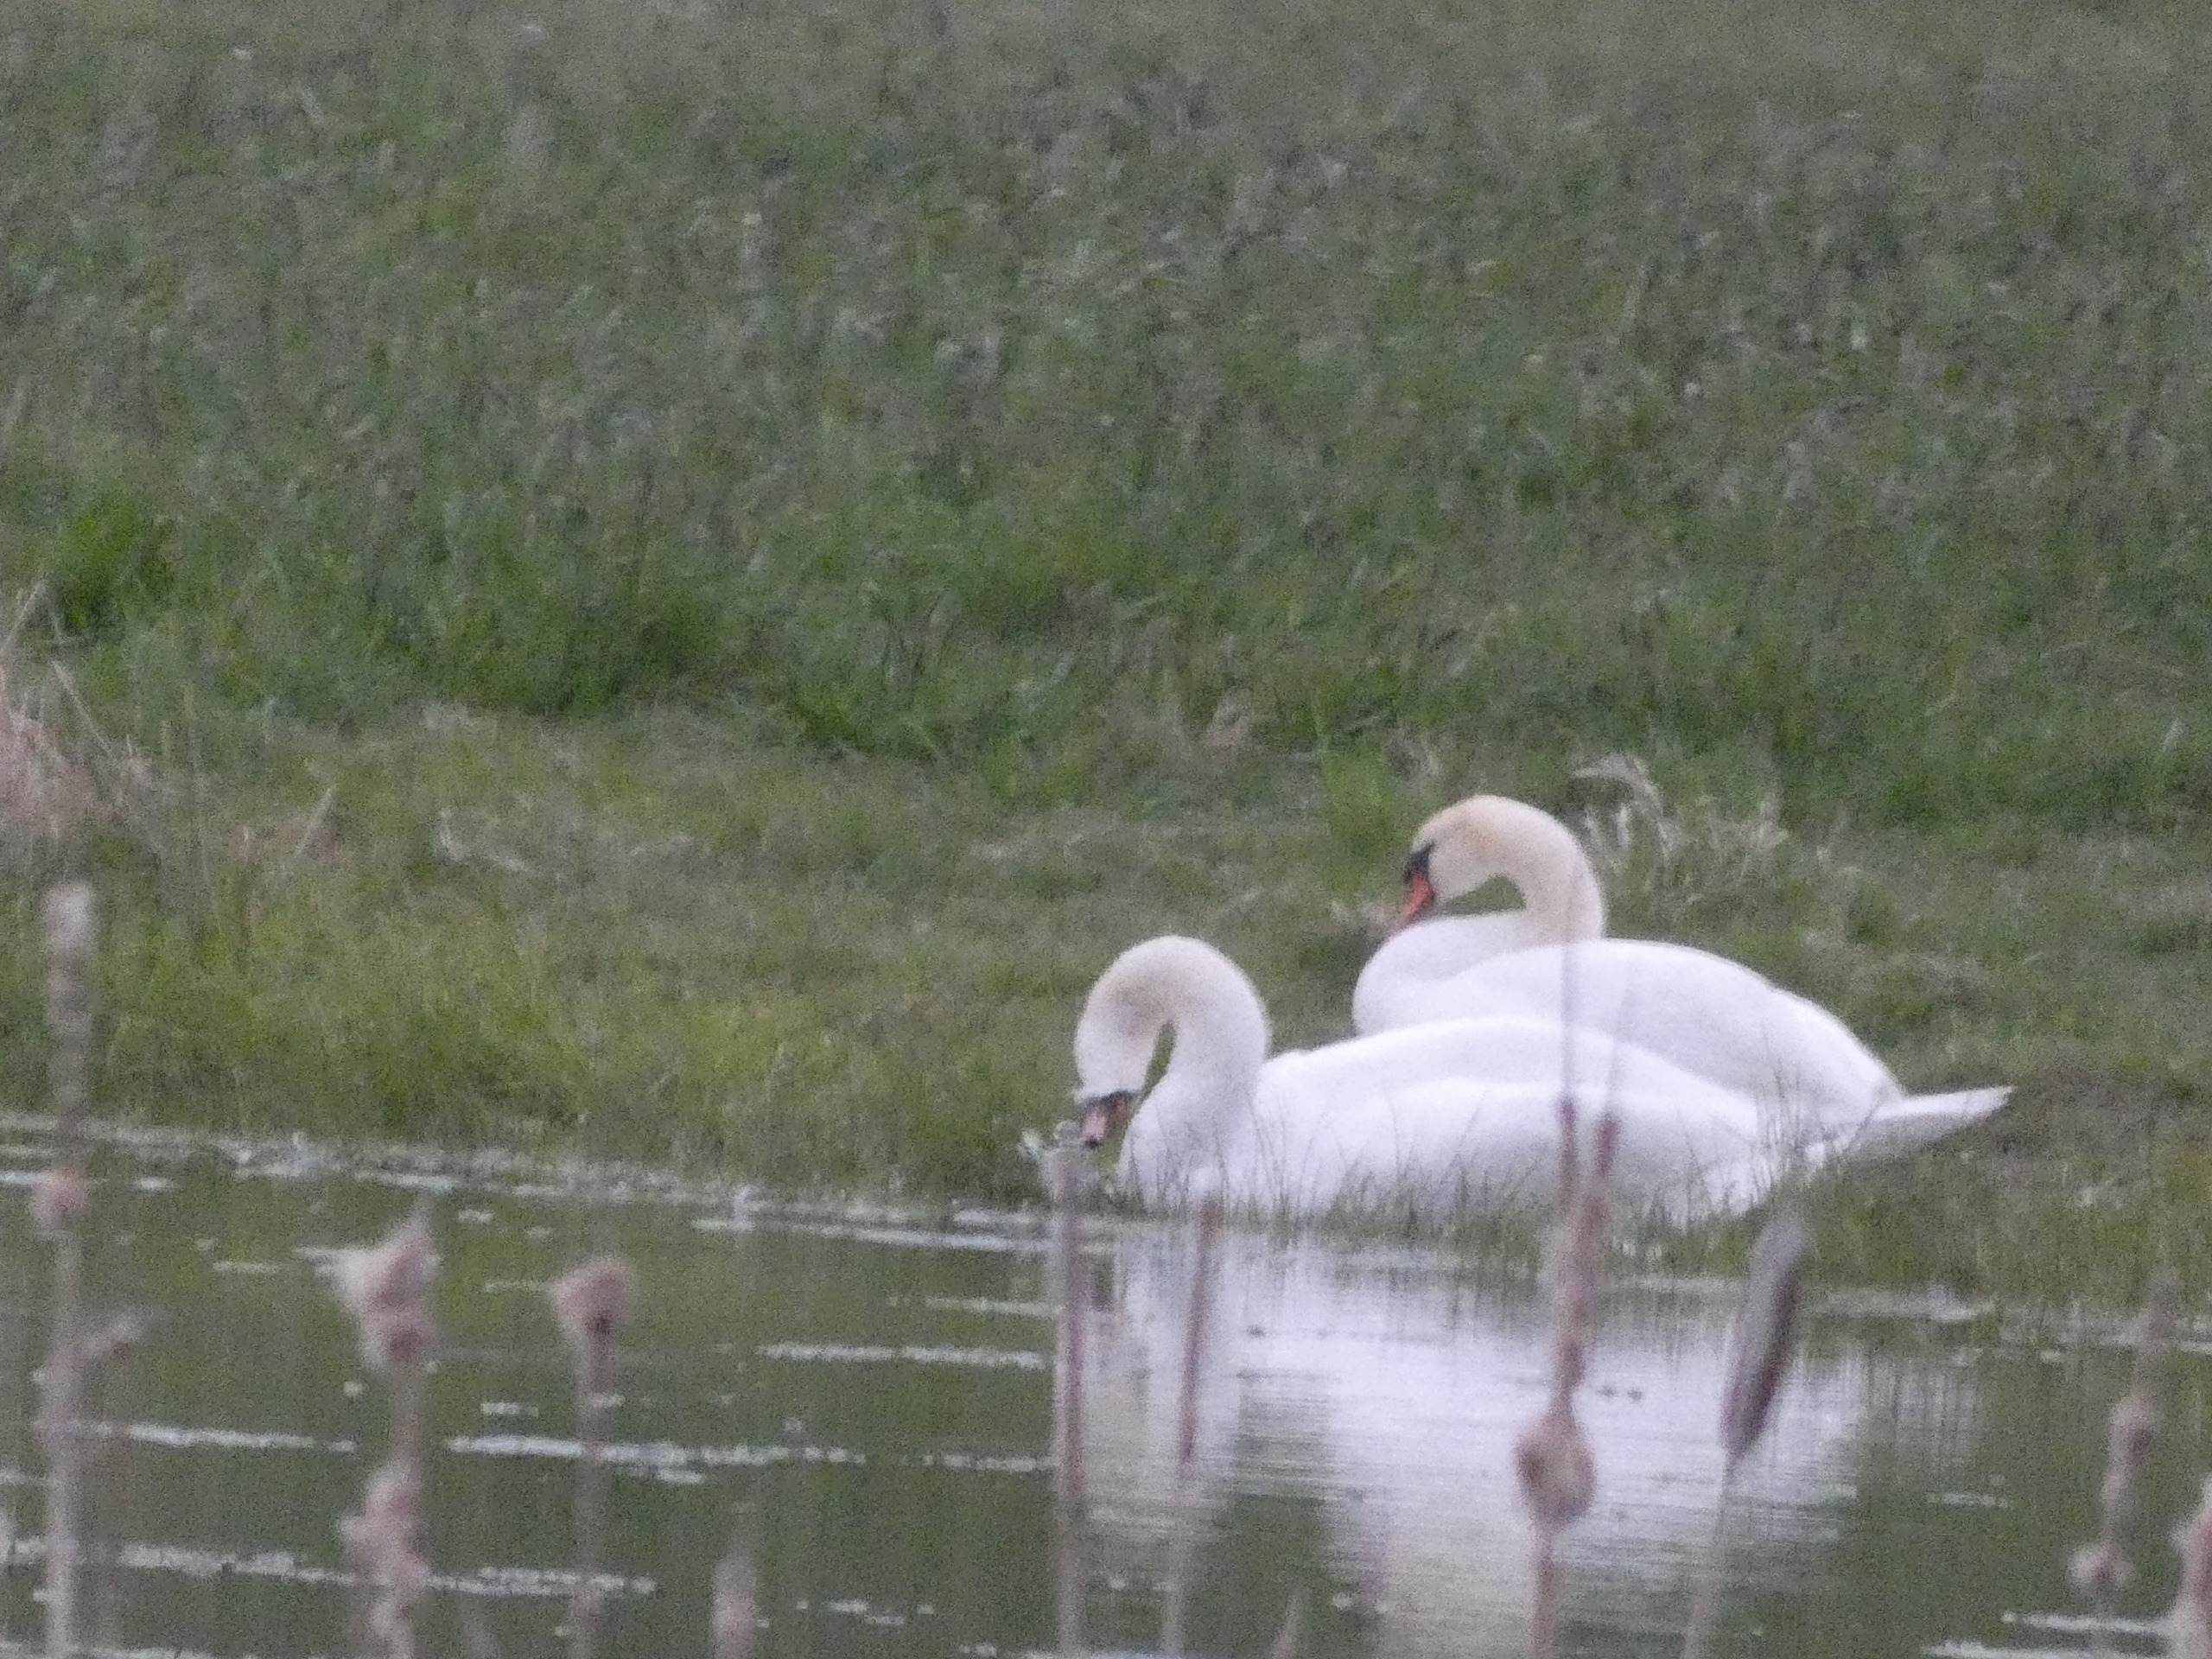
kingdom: Animalia
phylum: Chordata
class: Aves
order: Anseriformes
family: Anatidae
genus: Cygnus
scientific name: Cygnus olor
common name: Knopsvane
